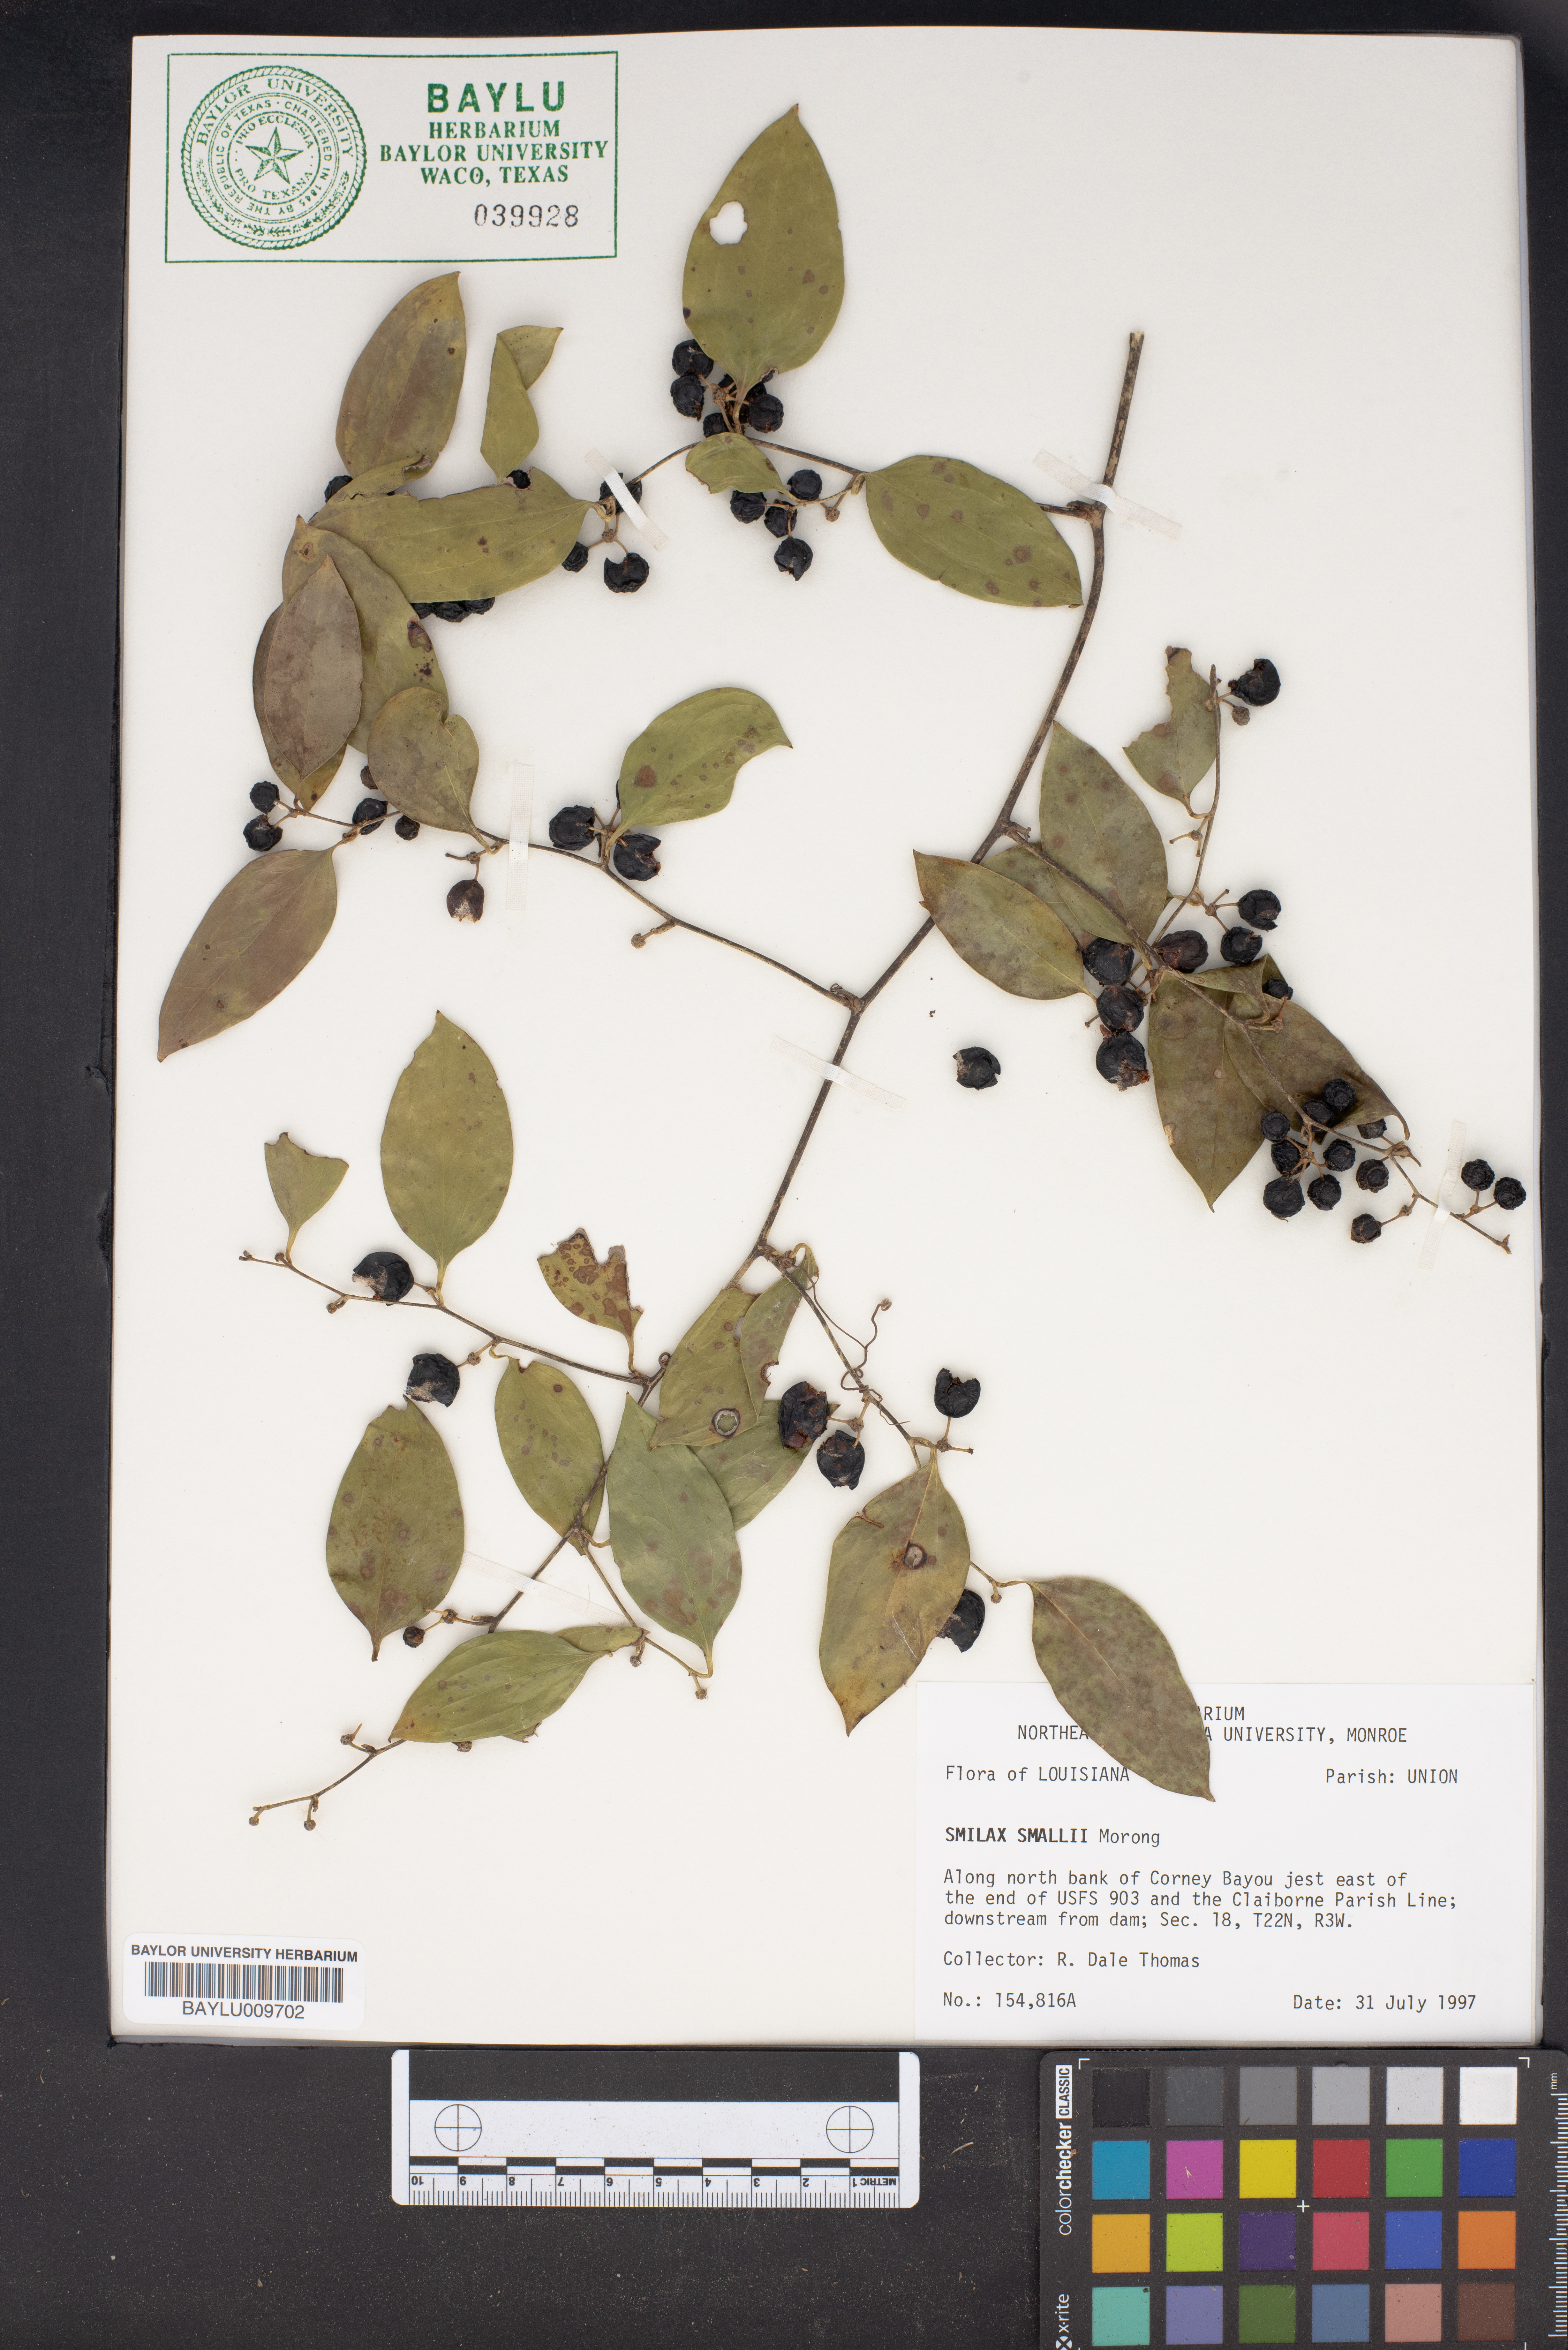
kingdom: Plantae
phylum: Tracheophyta
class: Liliopsida
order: Liliales
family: Smilacaceae
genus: Smilax
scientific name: Smilax maritima
